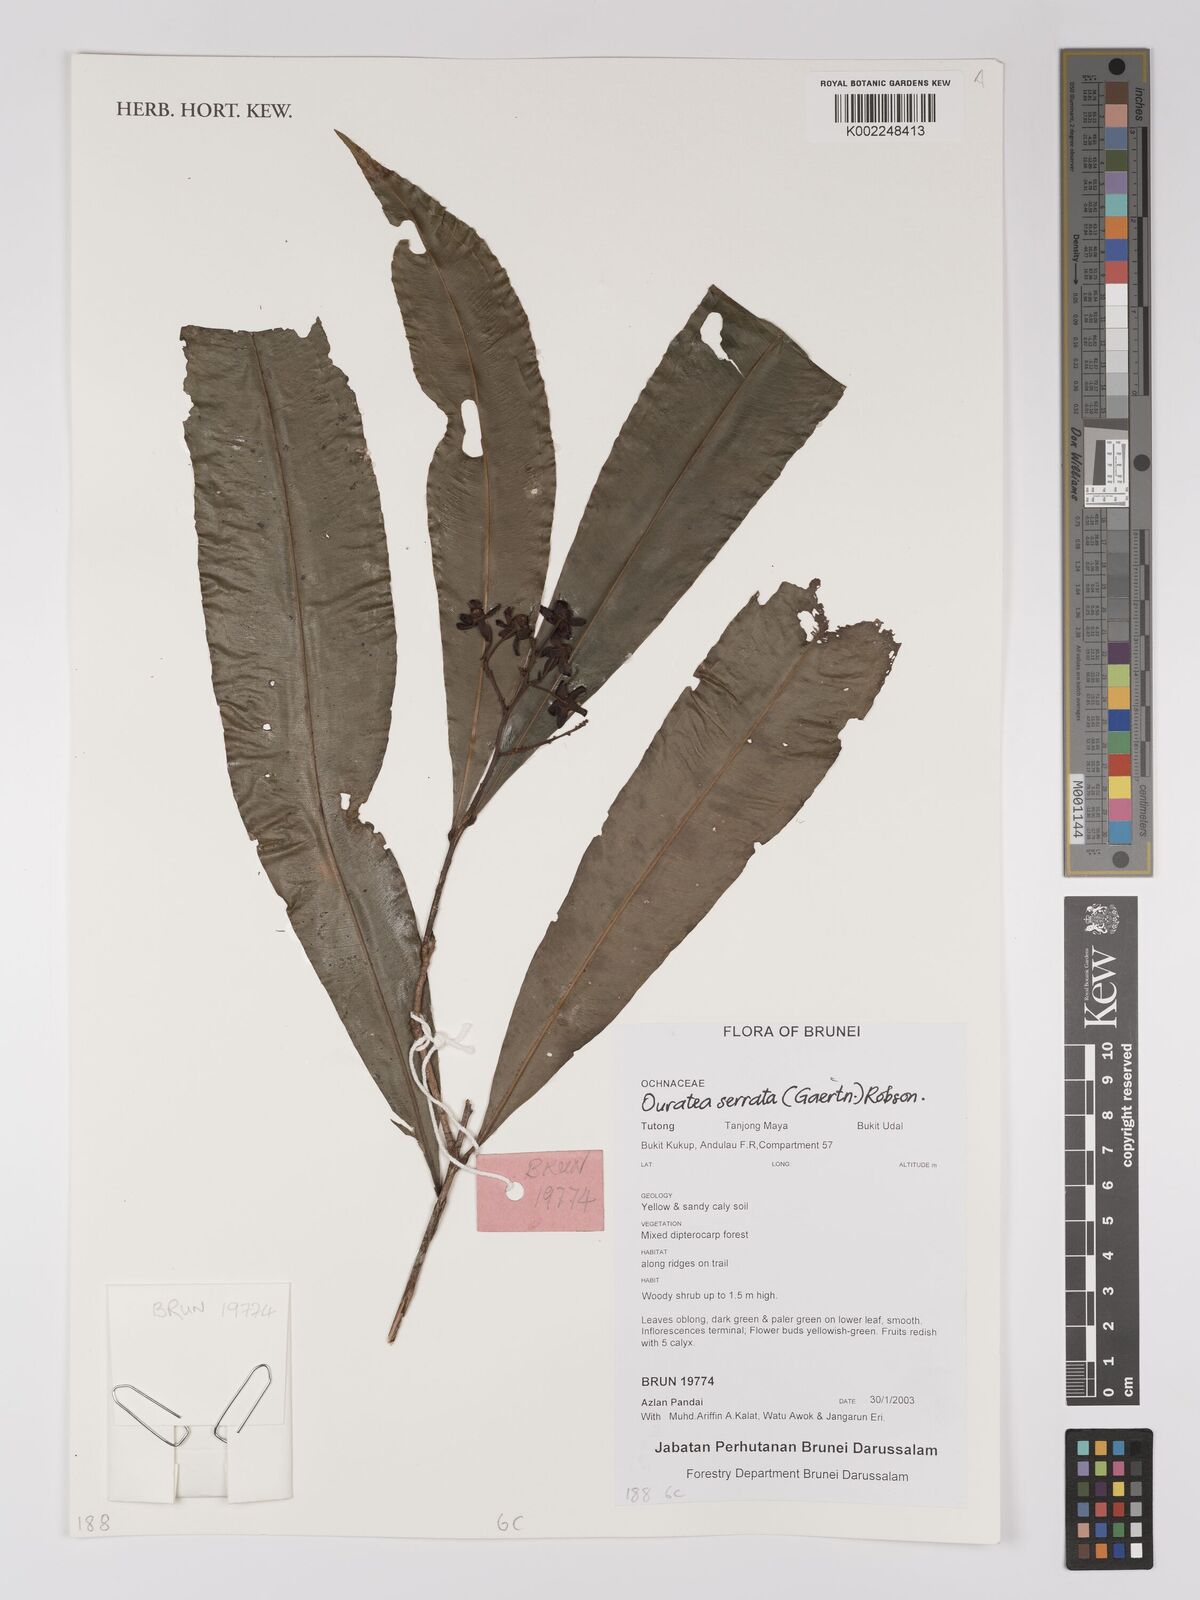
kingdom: Plantae
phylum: Tracheophyta
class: Magnoliopsida
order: Malpighiales
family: Ochnaceae
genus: Gomphia
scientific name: Gomphia serrata
